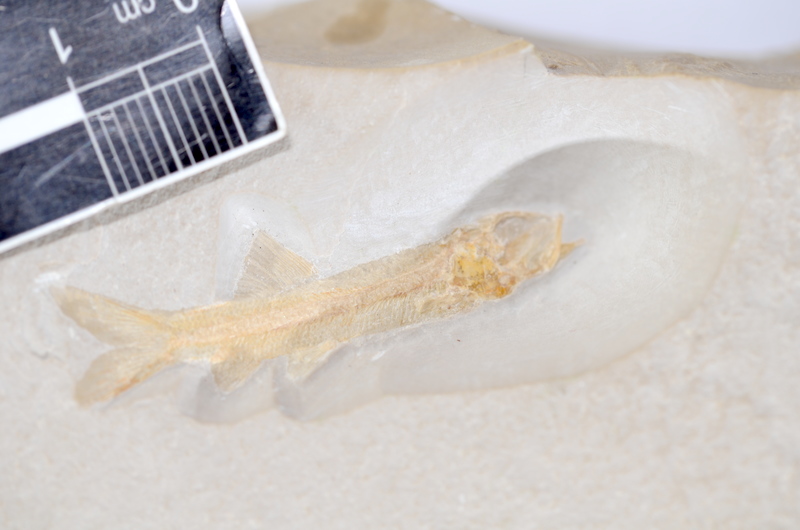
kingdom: Animalia
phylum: Chordata
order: Elopiformes
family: Anaethalionidae
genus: Anaethalion
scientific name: Anaethalion angustissimus
